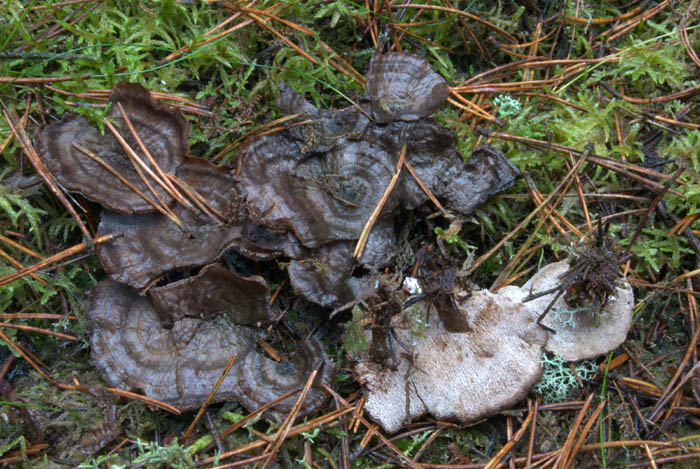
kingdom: Fungi
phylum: Basidiomycota
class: Agaricomycetes
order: Thelephorales
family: Thelephoraceae
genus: Phellodon
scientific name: Phellodon tomentosus
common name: tragtformet duftpigsvamp
